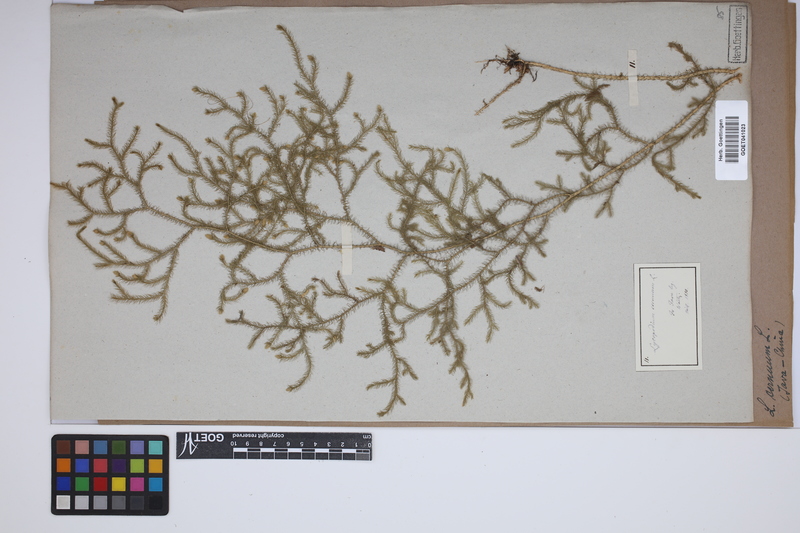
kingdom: Plantae
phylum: Tracheophyta
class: Lycopodiopsida
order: Lycopodiales
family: Lycopodiaceae
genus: Palhinhaea
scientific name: Palhinhaea cernua
